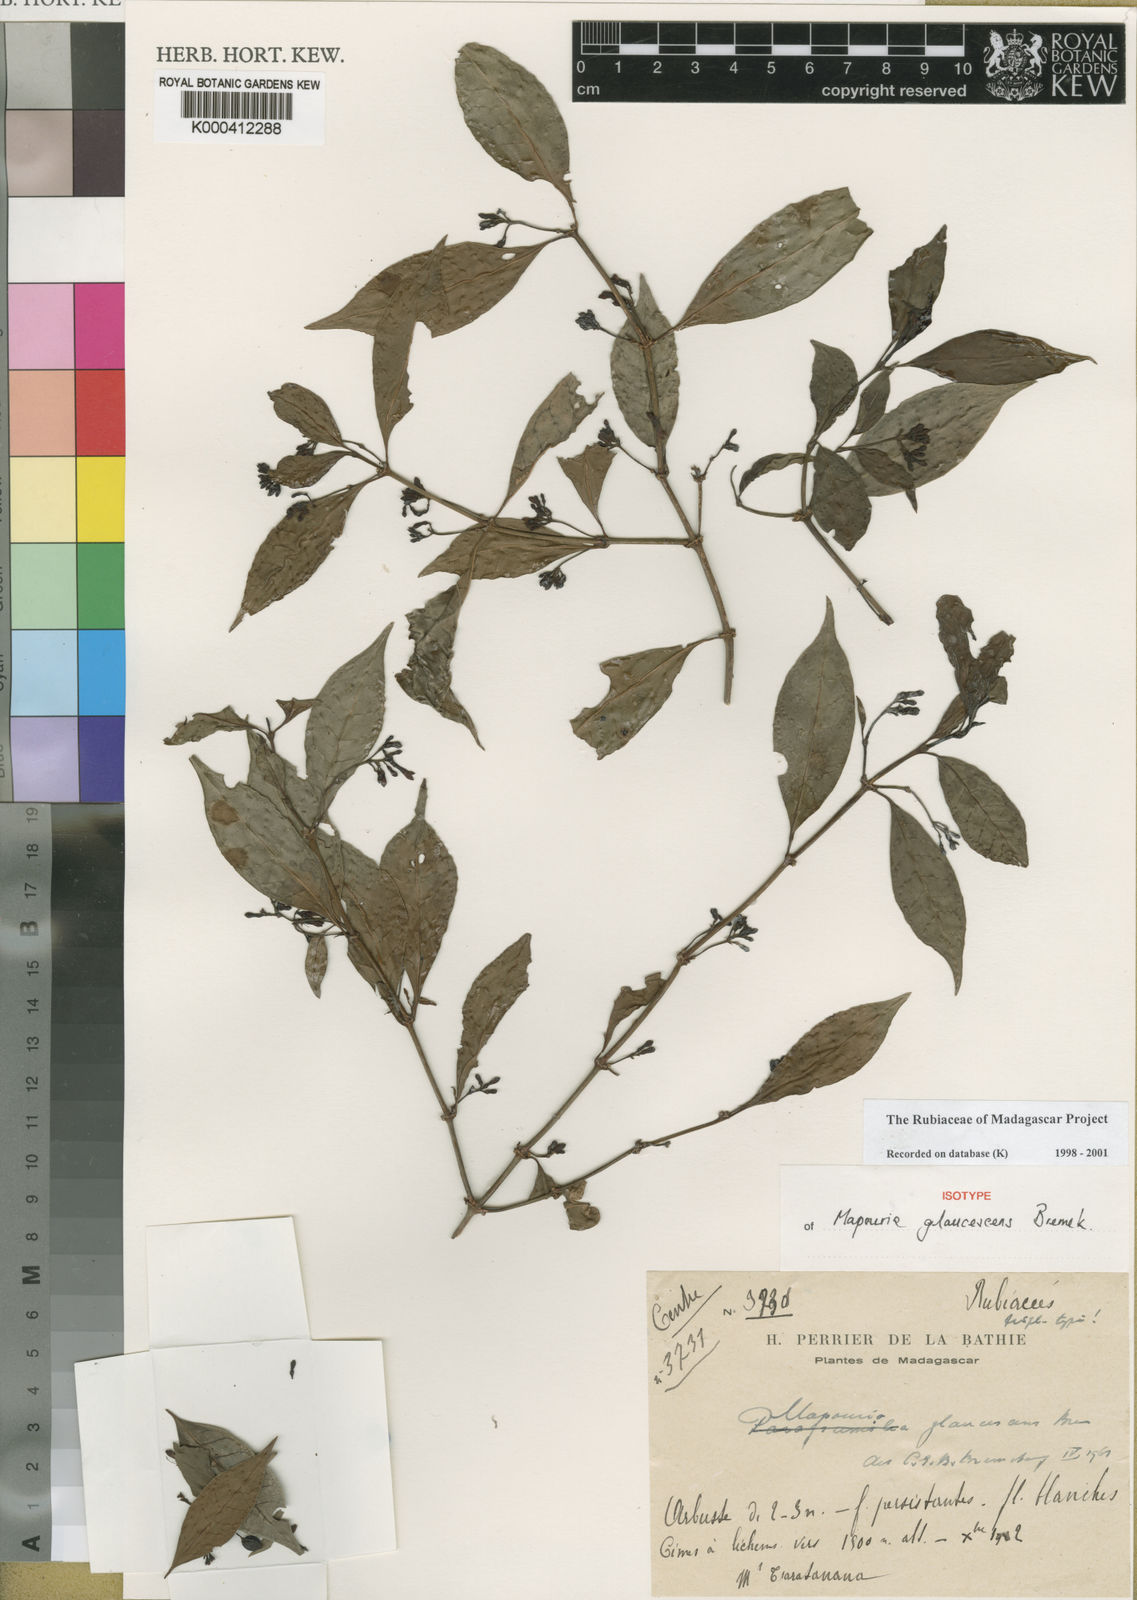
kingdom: Plantae
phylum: Tracheophyta
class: Magnoliopsida
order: Gentianales
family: Rubiaceae
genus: Psychotria
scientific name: Psychotria horizontalis
